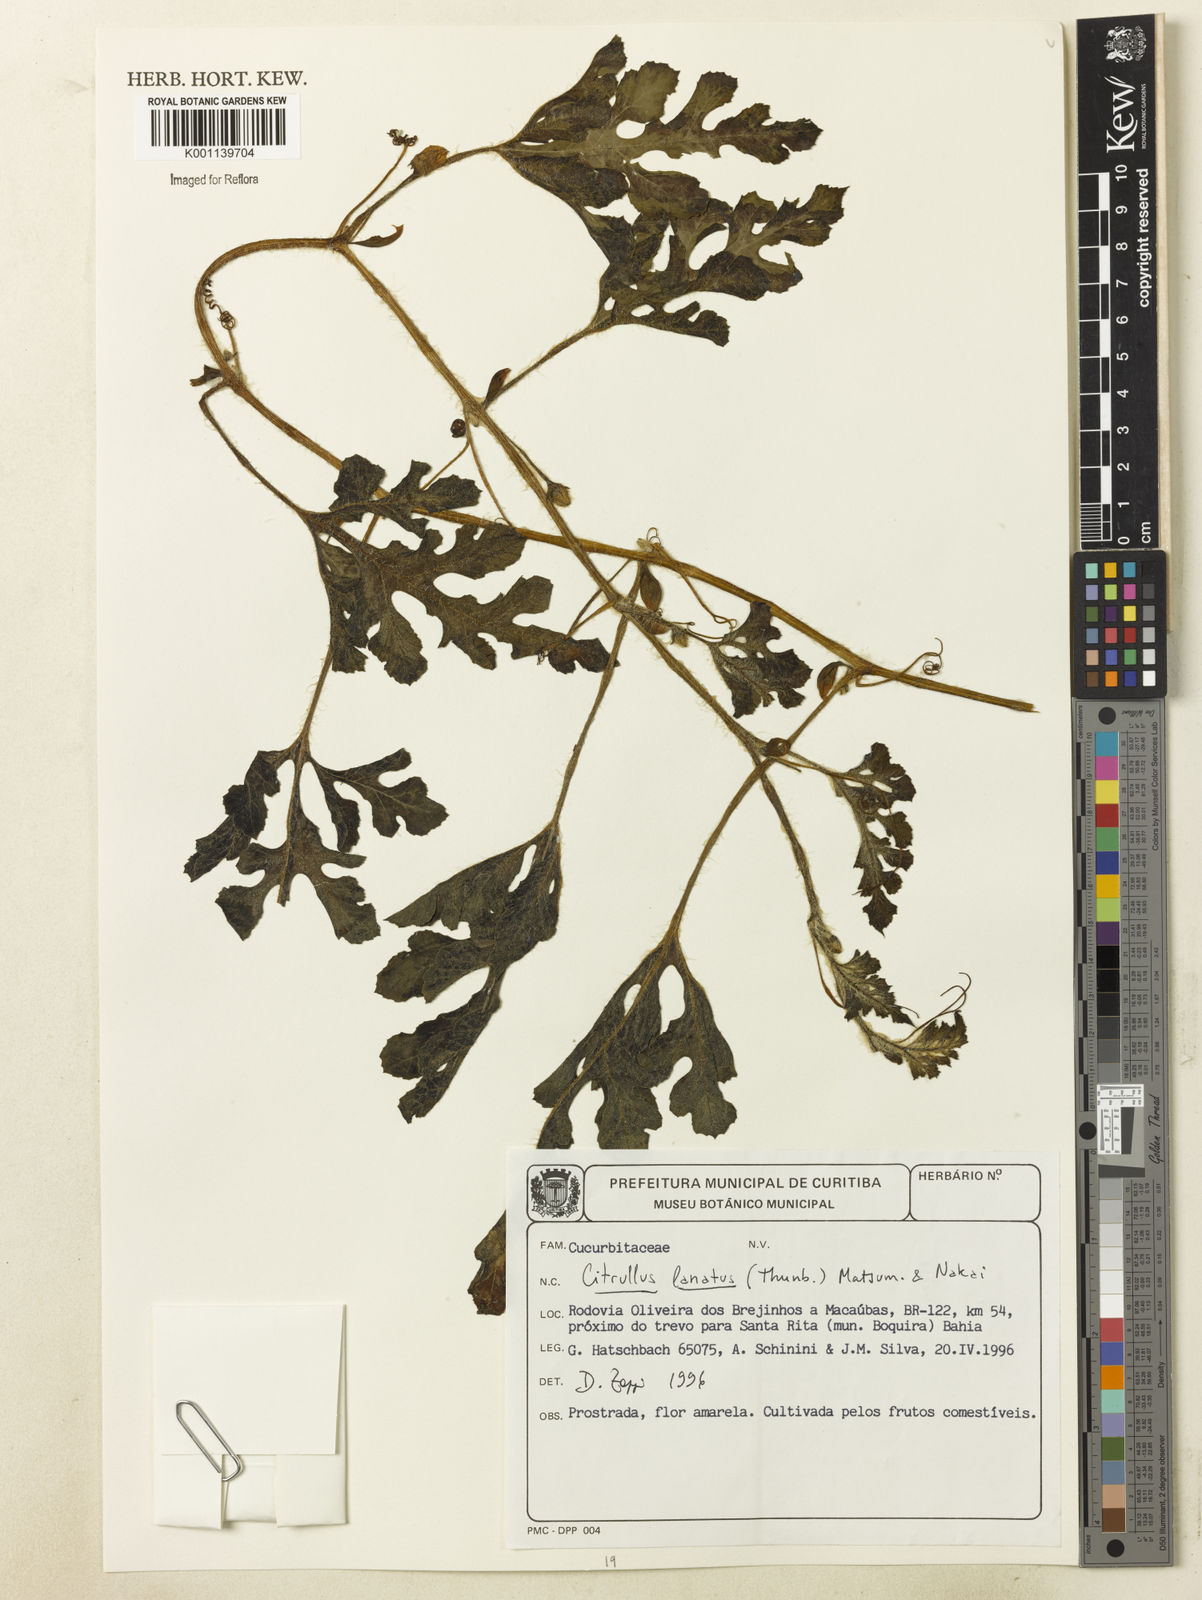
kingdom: Plantae
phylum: Tracheophyta
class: Magnoliopsida
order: Cucurbitales
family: Cucurbitaceae
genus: Citrullus
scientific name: Citrullus lanatus
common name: Watermelon
